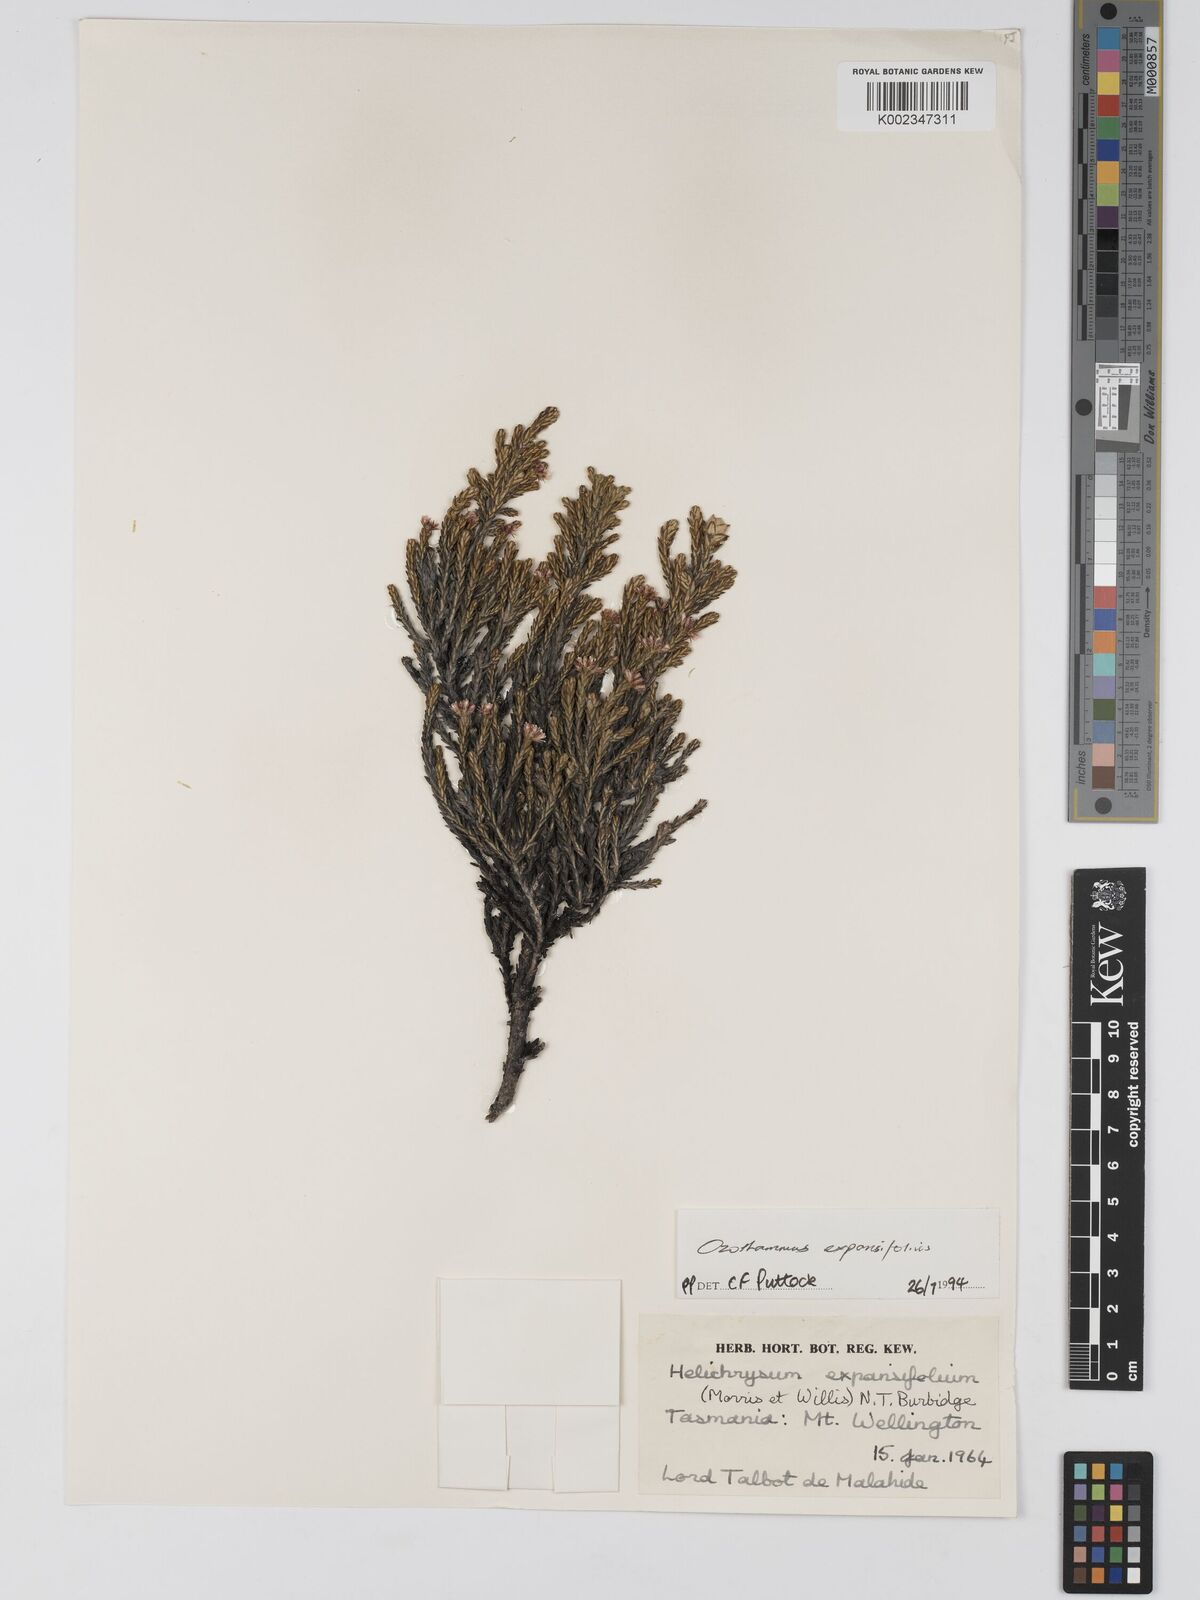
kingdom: Plantae
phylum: Tracheophyta
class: Magnoliopsida
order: Asterales
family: Asteraceae
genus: Ozothamnus
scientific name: Ozothamnus expansifolius
